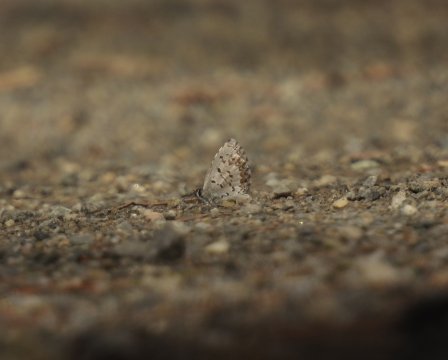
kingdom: Animalia
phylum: Arthropoda
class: Insecta
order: Lepidoptera
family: Lycaenidae
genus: Celastrina
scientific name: Celastrina lucia
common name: Northern Spring Azure
